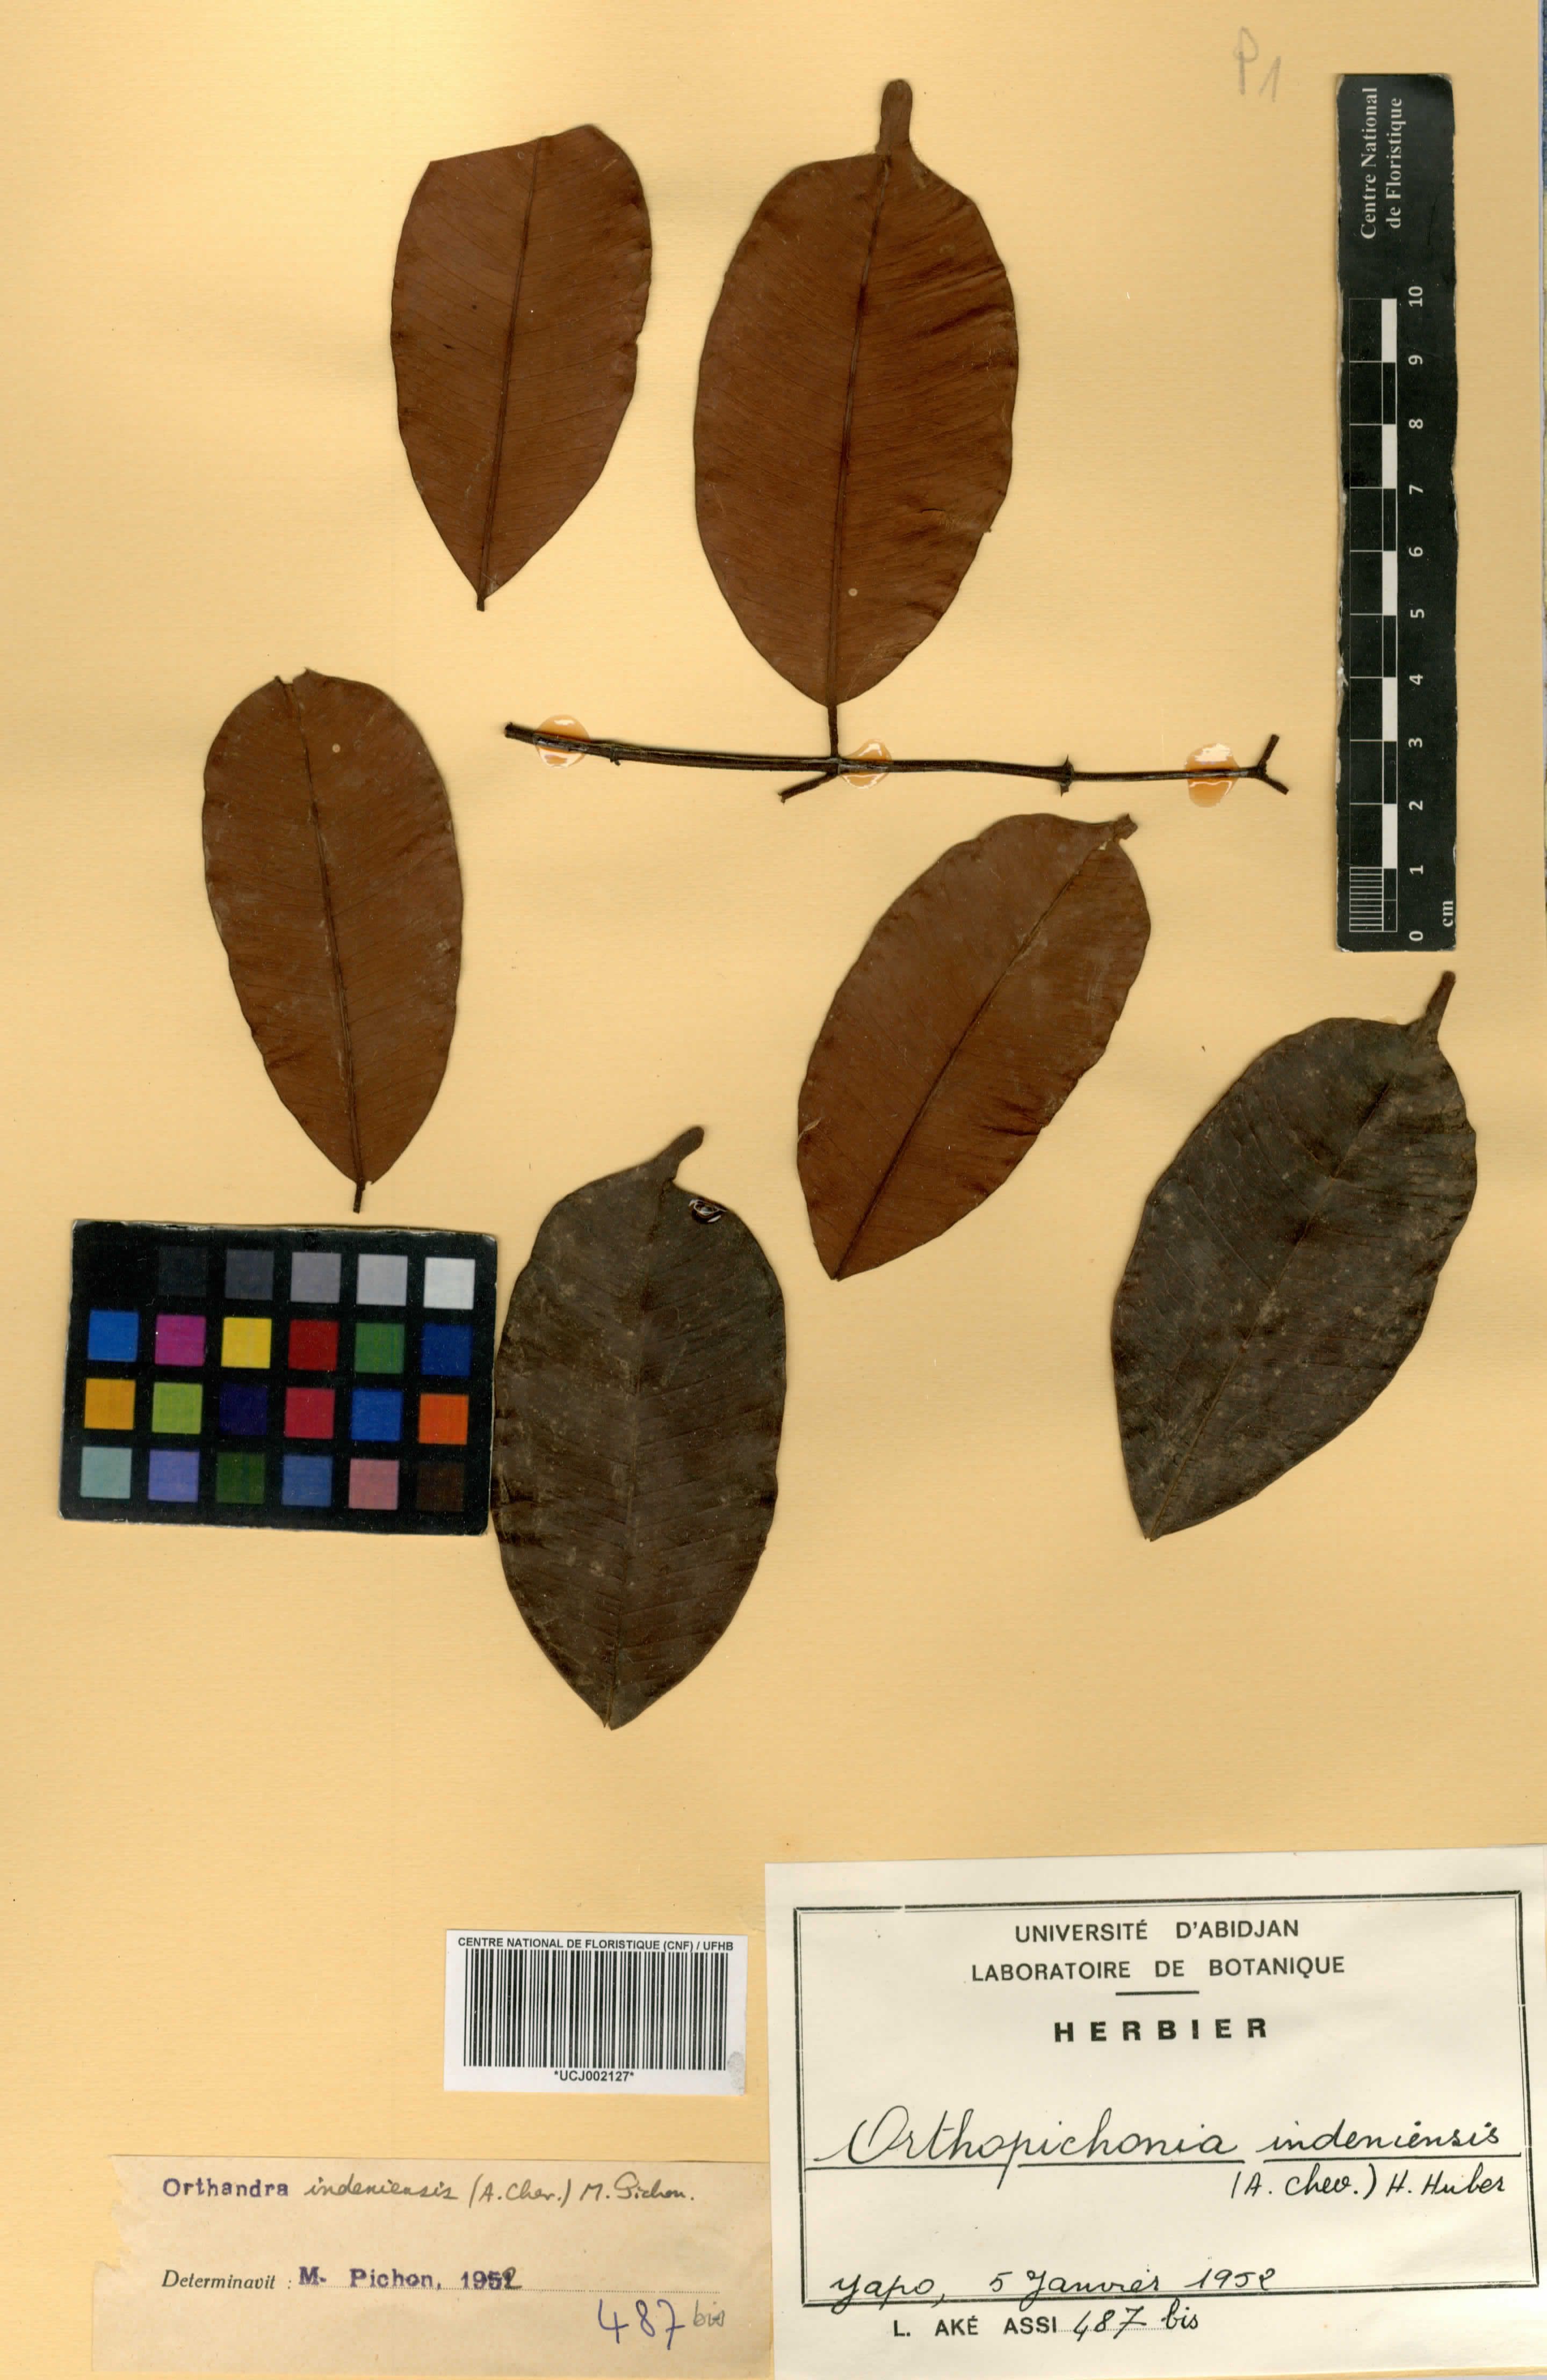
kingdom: Plantae
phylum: Tracheophyta
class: Magnoliopsida
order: Gentianales
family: Apocynaceae
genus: Orthopichonia
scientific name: Orthopichonia indeniensis
